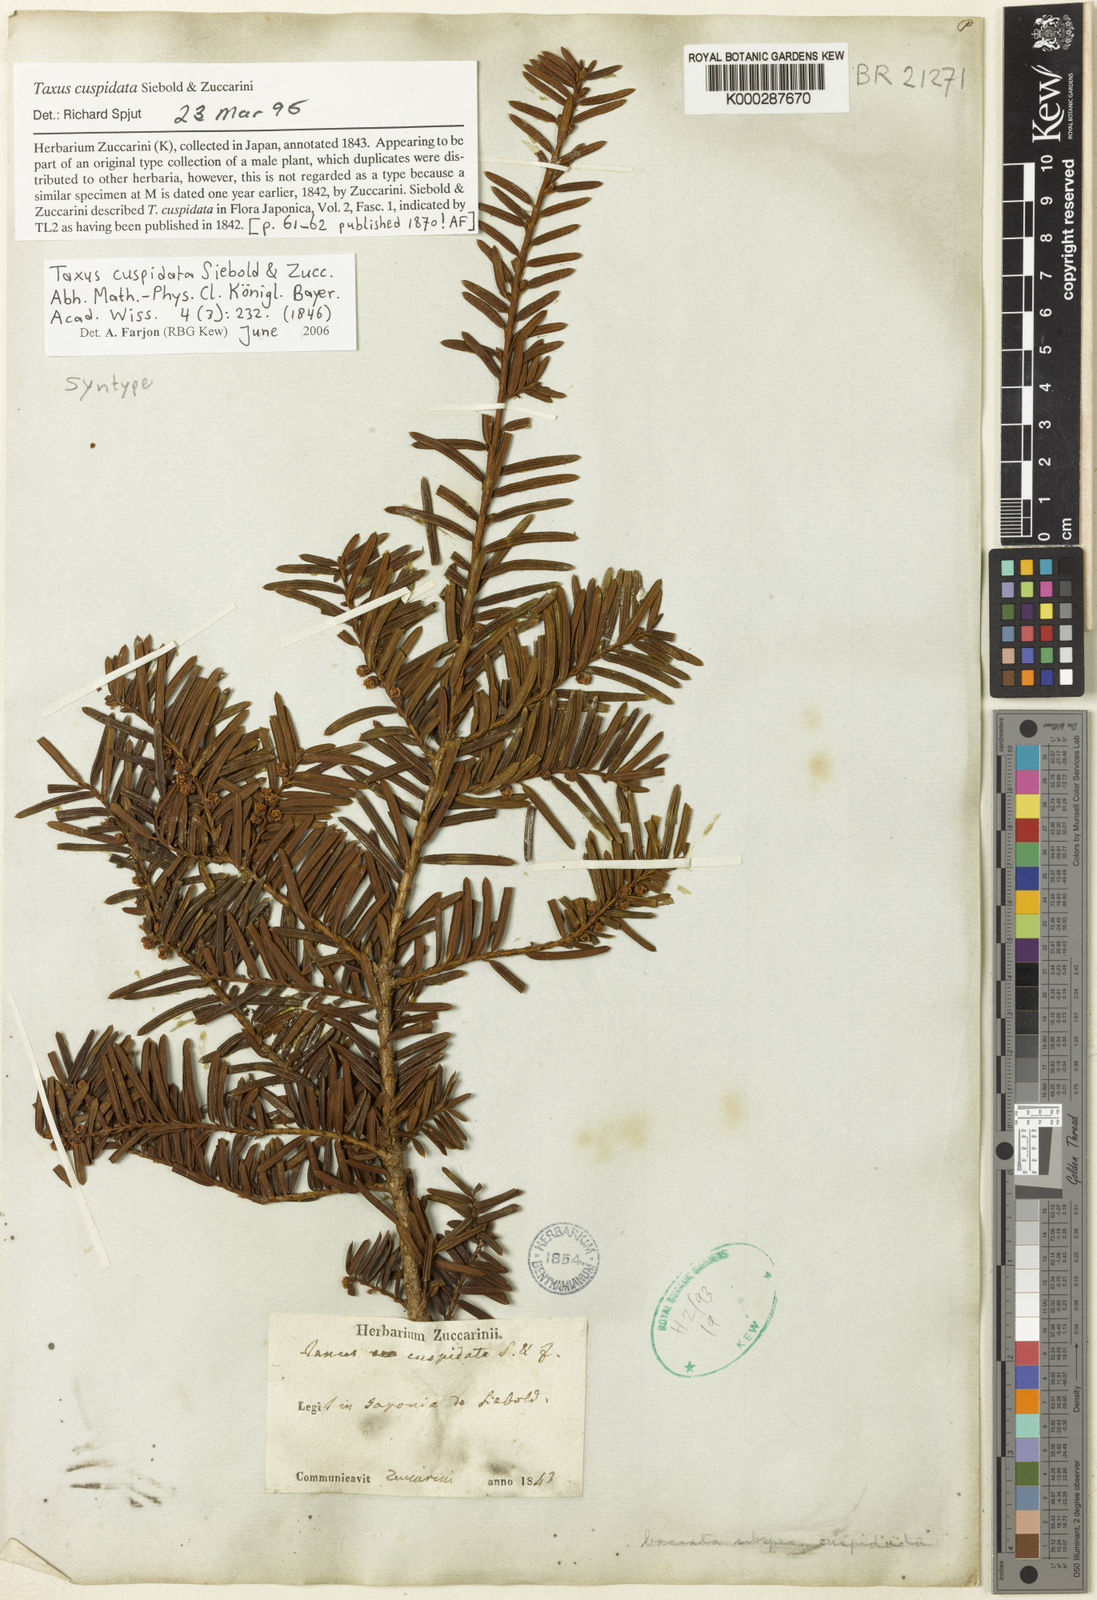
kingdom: Plantae
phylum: Tracheophyta
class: Pinopsida
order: Pinales
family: Taxaceae
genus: Taxus
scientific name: Taxus cuspidata
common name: Japanese yew
